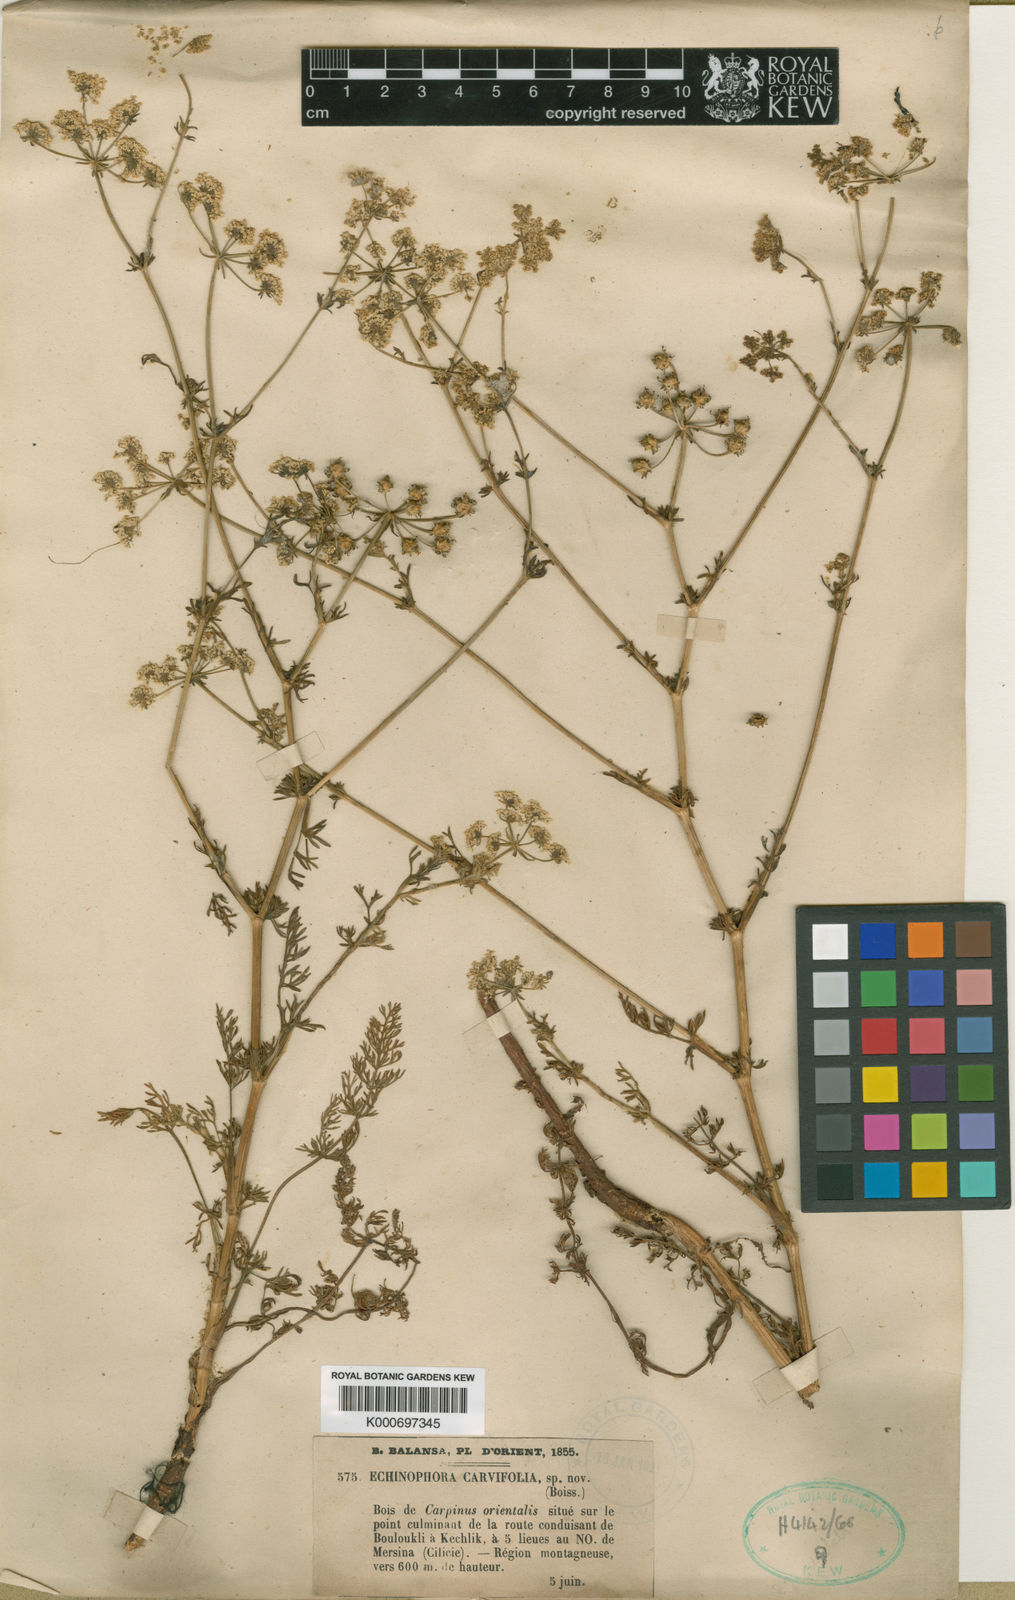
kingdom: Plantae
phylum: Tracheophyta
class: Magnoliopsida
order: Apiales
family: Apiaceae
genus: Thecocarpus
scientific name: Thecocarpus carvifolius
